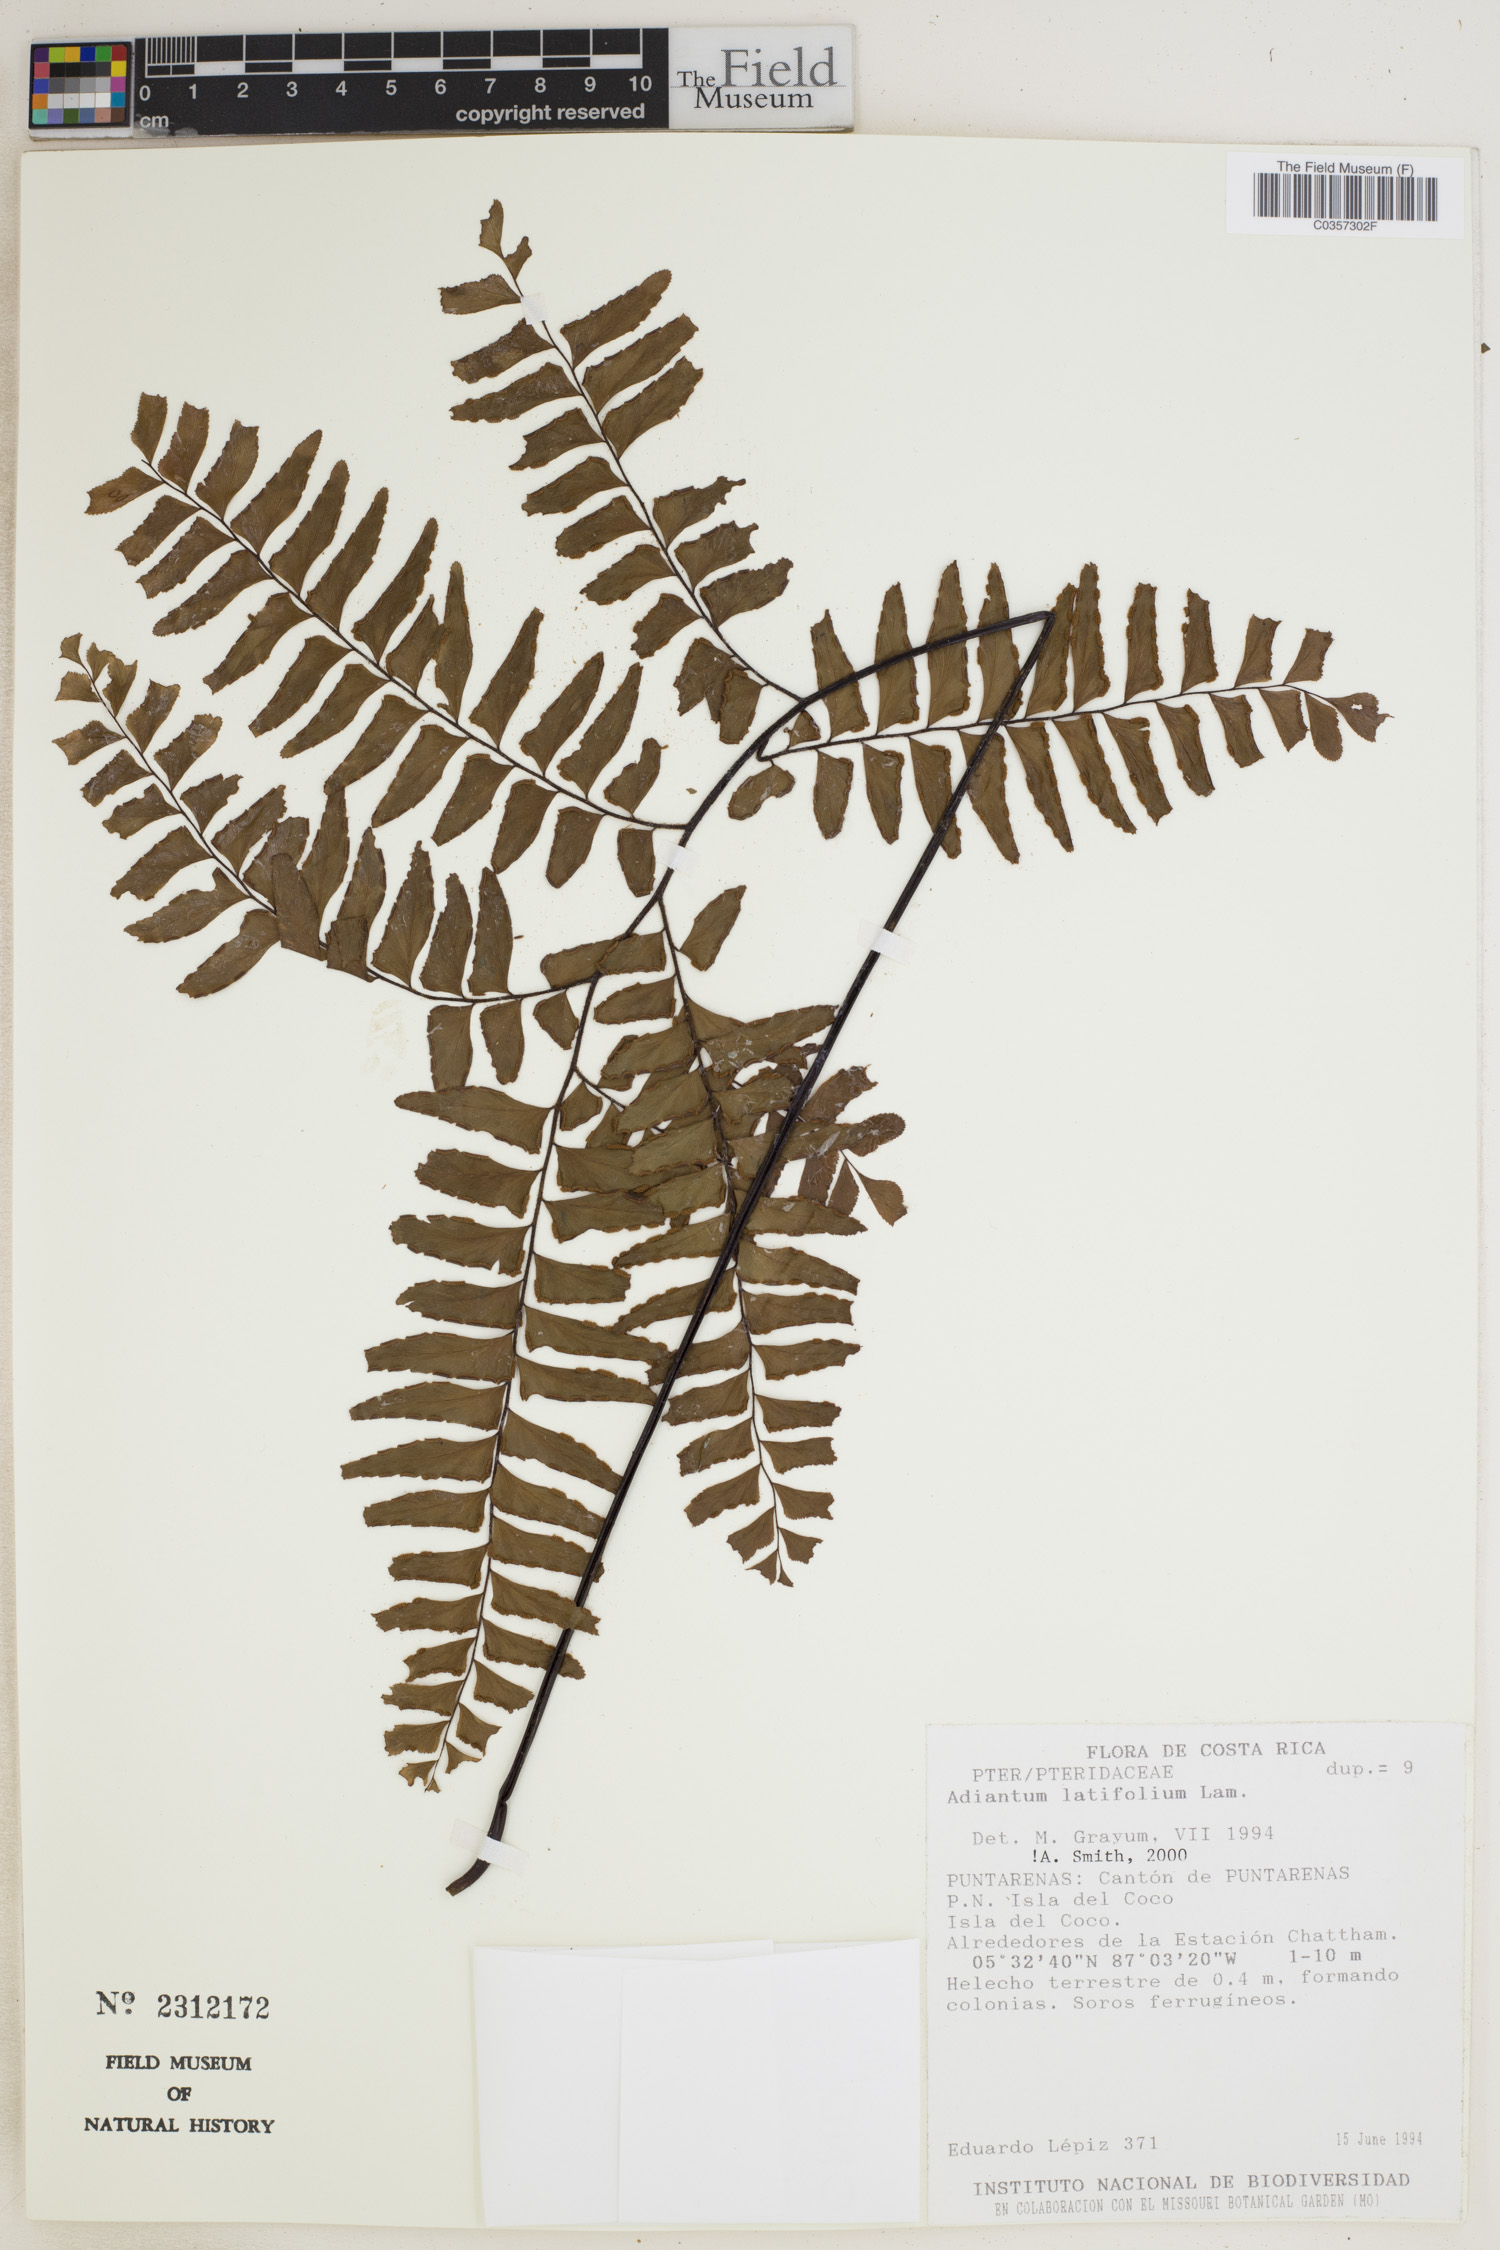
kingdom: Plantae
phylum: Tracheophyta
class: Polypodiopsida
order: Polypodiales
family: Pteridaceae
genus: Adiantum
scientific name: Adiantum latifolium
